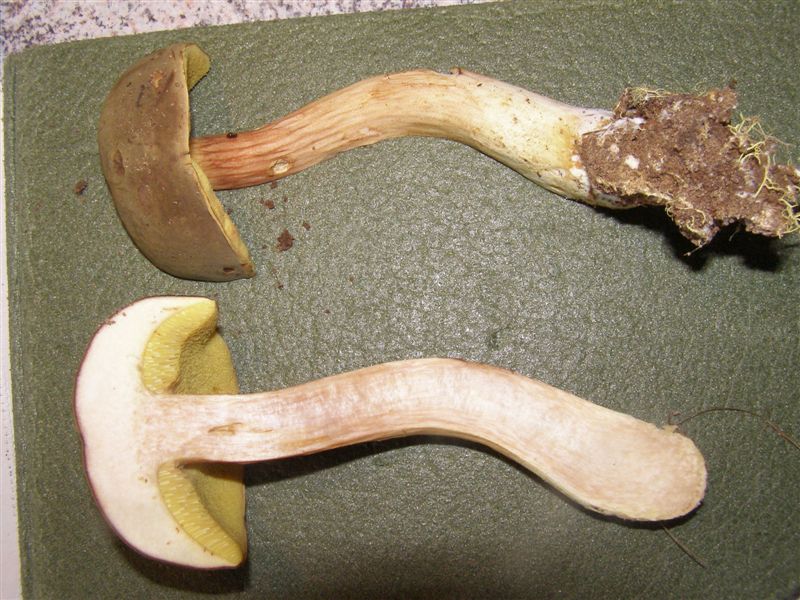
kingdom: Fungi
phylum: Basidiomycota
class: Agaricomycetes
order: Boletales
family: Boletaceae
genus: Xerocomus
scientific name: Xerocomus ferrugineus
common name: vaskeskinds-rørhat
